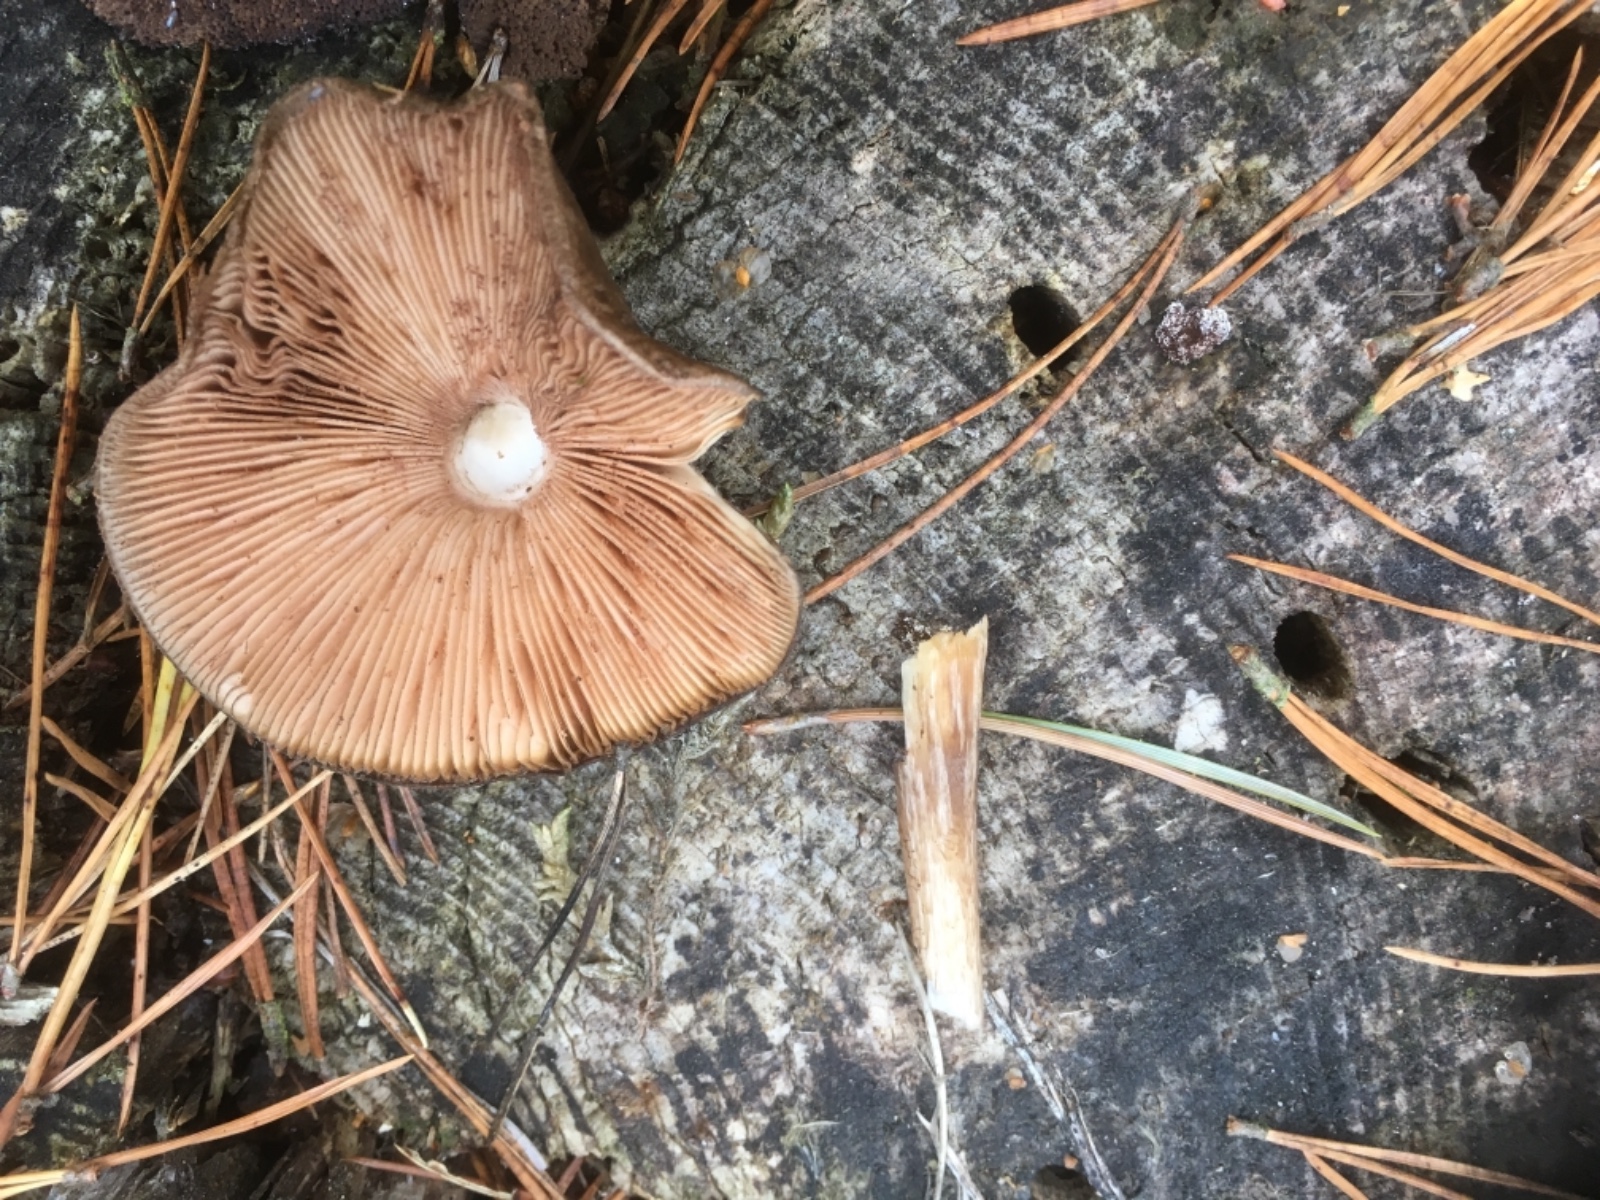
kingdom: Fungi
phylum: Basidiomycota
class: Agaricomycetes
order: Agaricales
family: Pluteaceae
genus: Pluteus
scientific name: Pluteus atromarginatus
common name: sortrandet skærmhat
